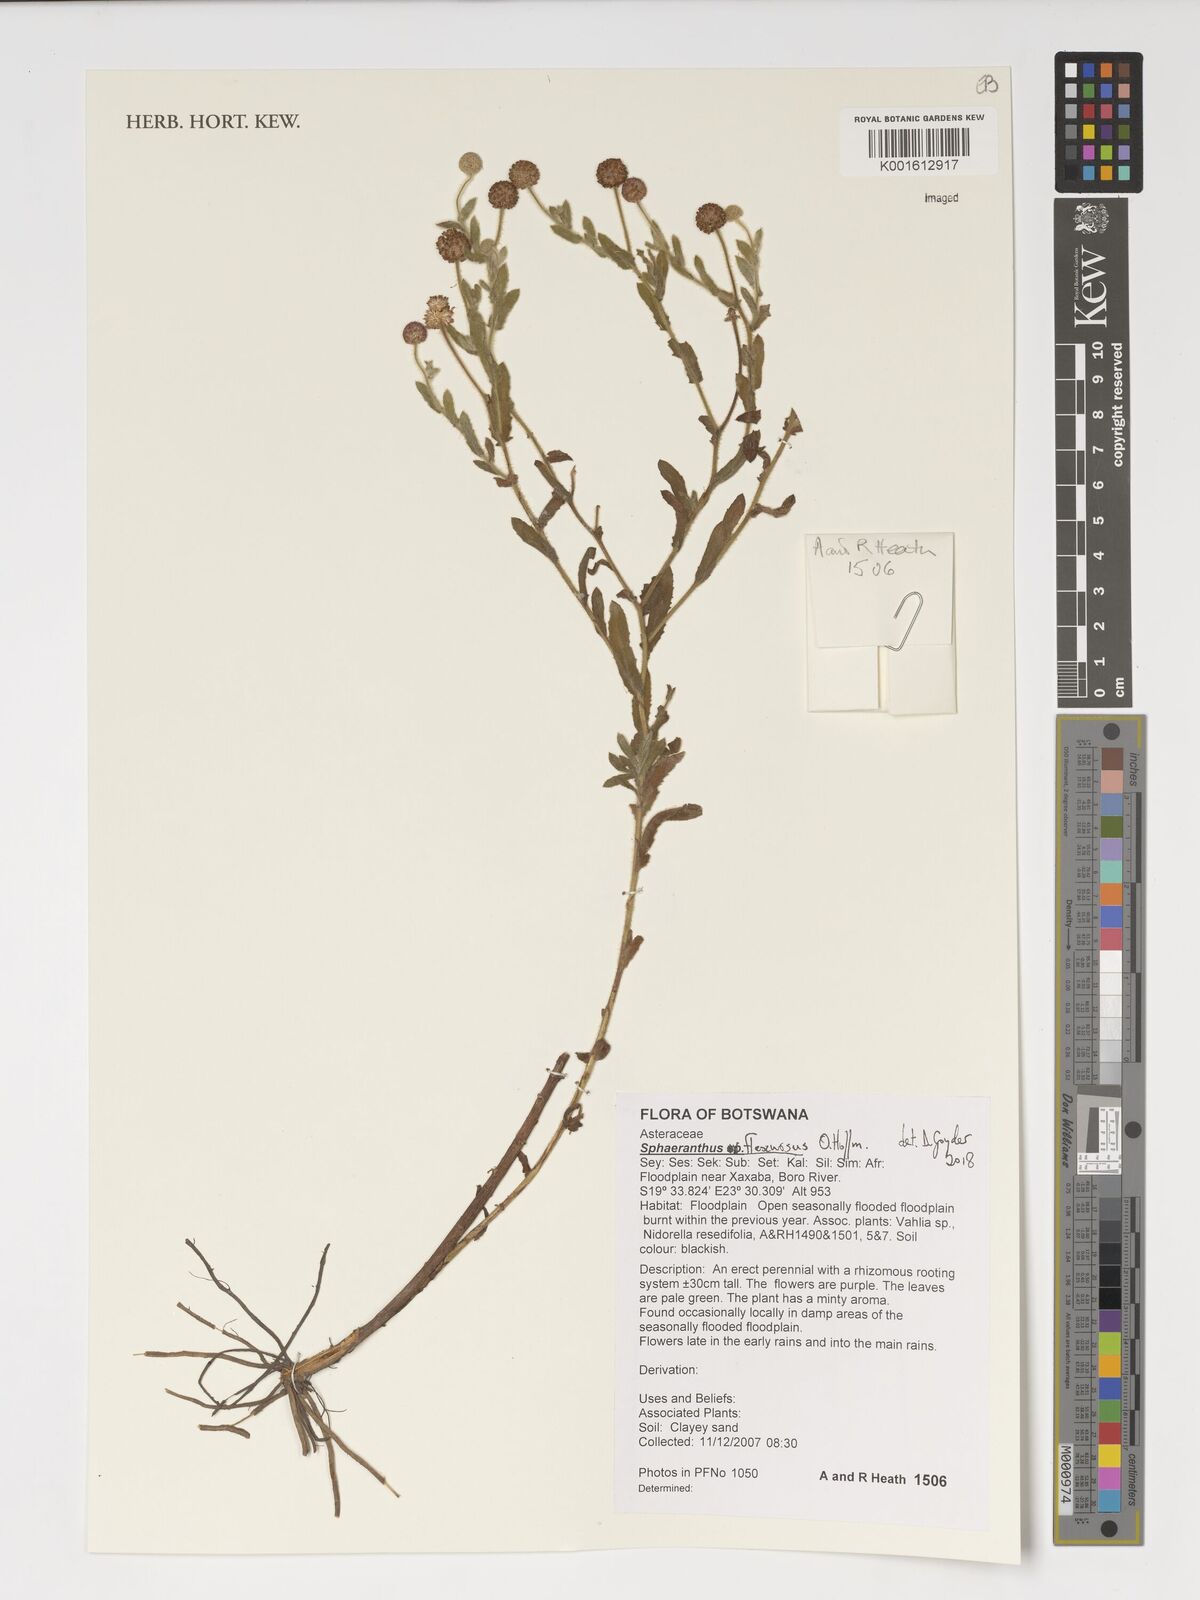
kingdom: Plantae
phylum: Tracheophyta
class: Magnoliopsida
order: Asterales
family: Asteraceae
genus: Sphaeranthus
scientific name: Sphaeranthus flexuosus
